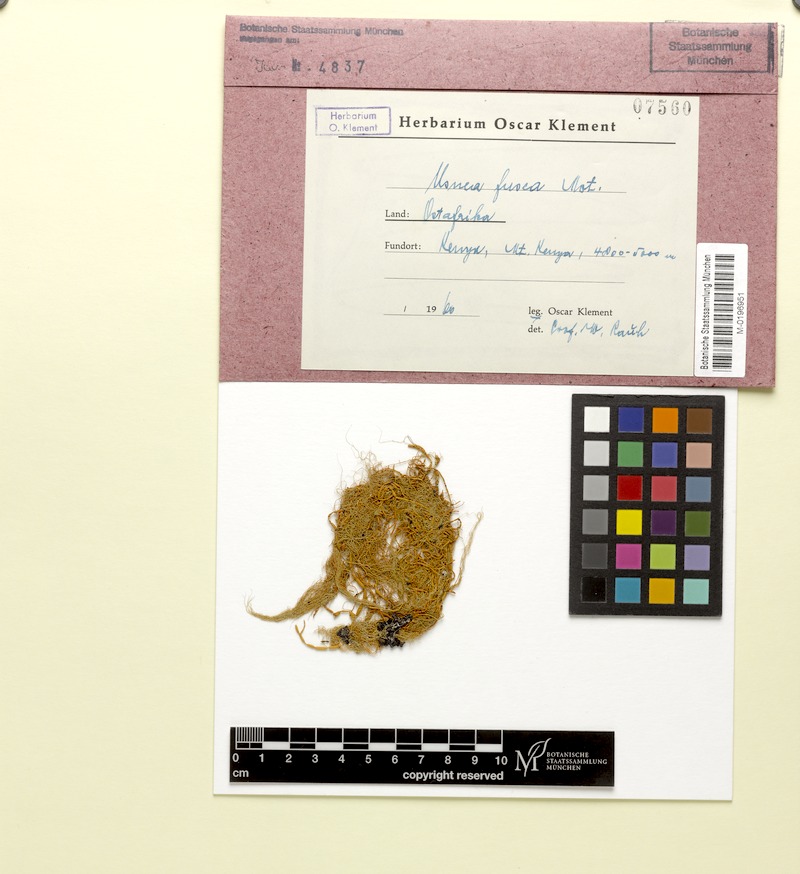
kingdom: Fungi
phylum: Ascomycota
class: Lecanoromycetes
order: Lecanorales
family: Parmeliaceae
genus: Usnea
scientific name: Usnea fusca
